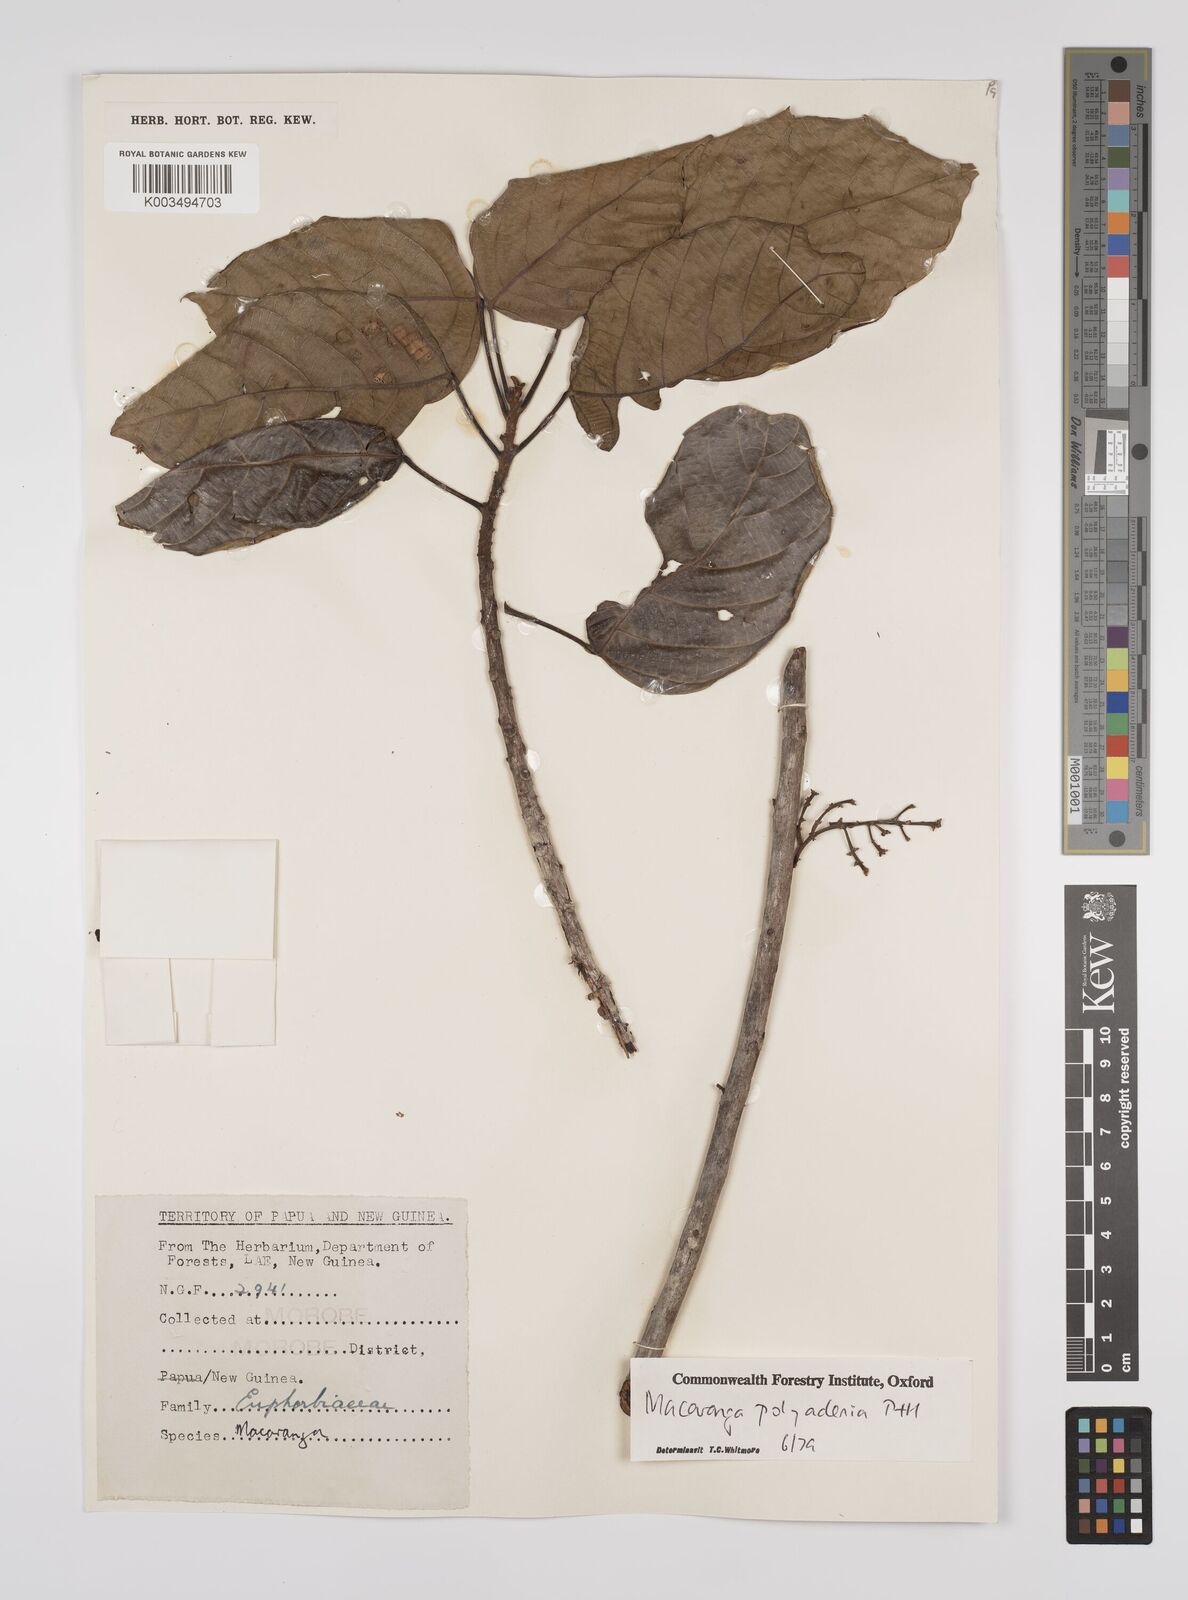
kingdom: Plantae
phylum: Tracheophyta
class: Magnoliopsida
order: Malpighiales
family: Euphorbiaceae
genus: Macaranga
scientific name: Macaranga polyadenia
